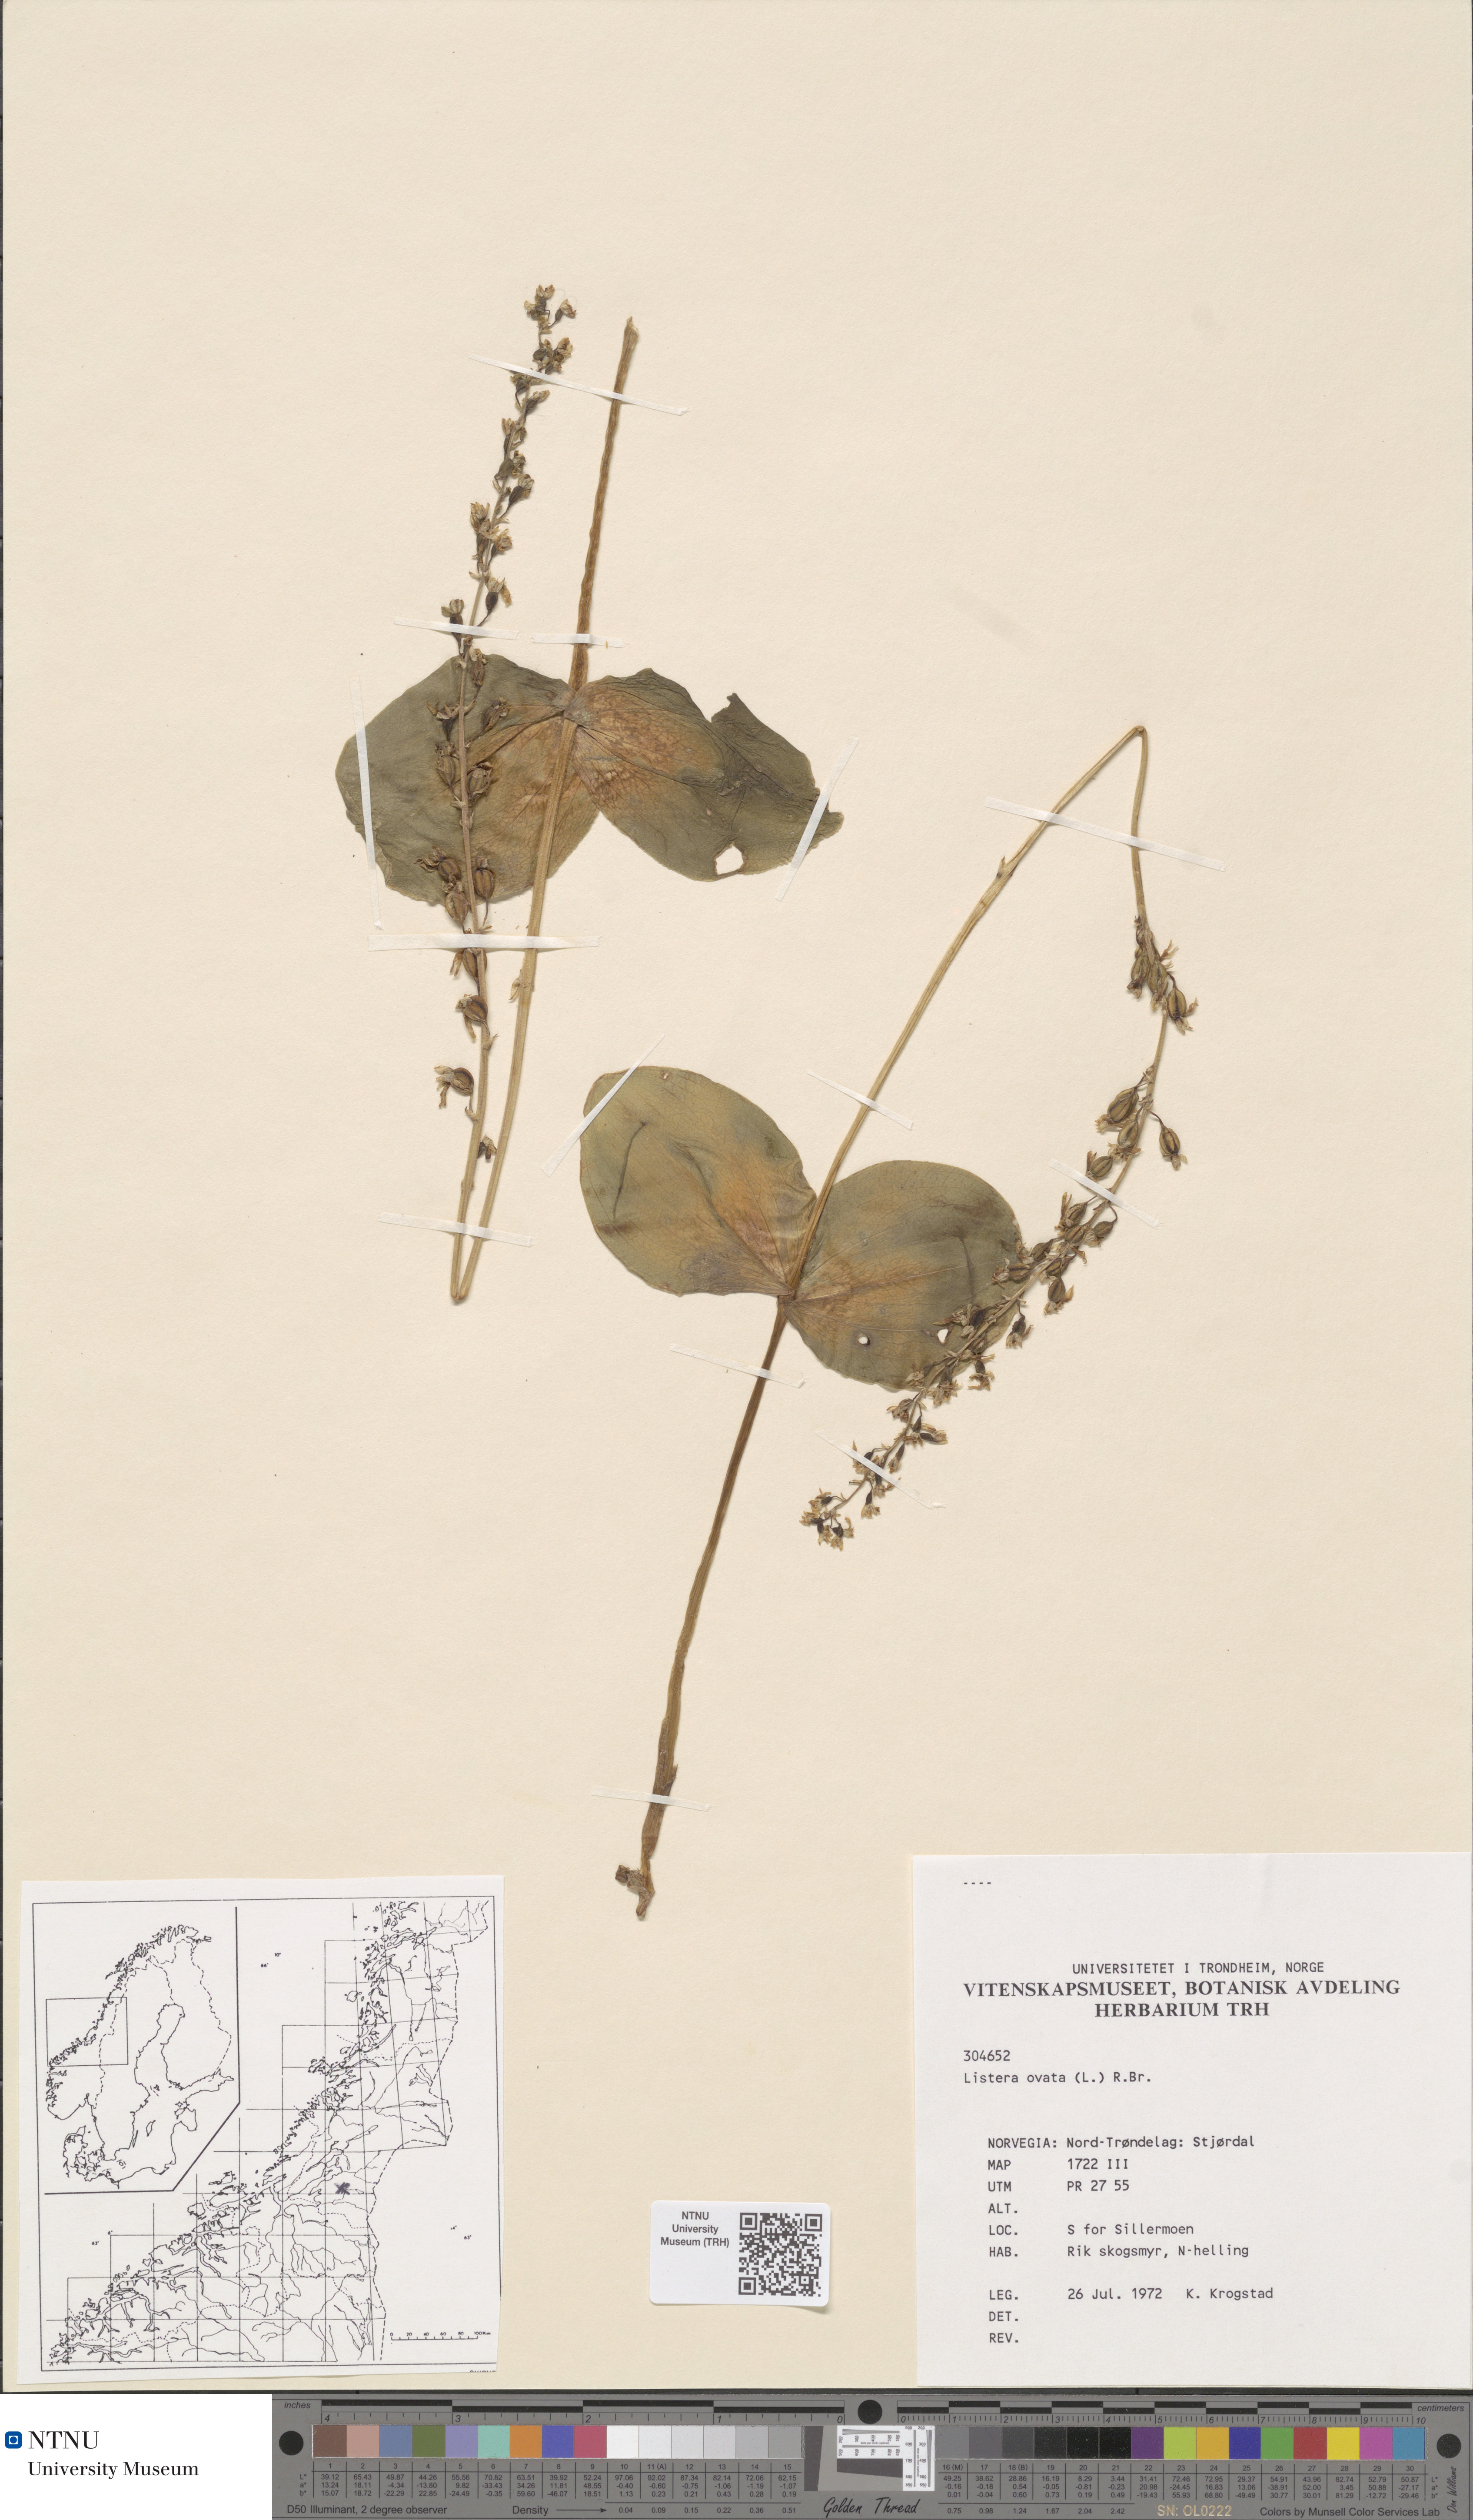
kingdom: Plantae
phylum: Tracheophyta
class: Liliopsida
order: Asparagales
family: Orchidaceae
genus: Neottia
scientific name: Neottia ovata
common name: Common twayblade
